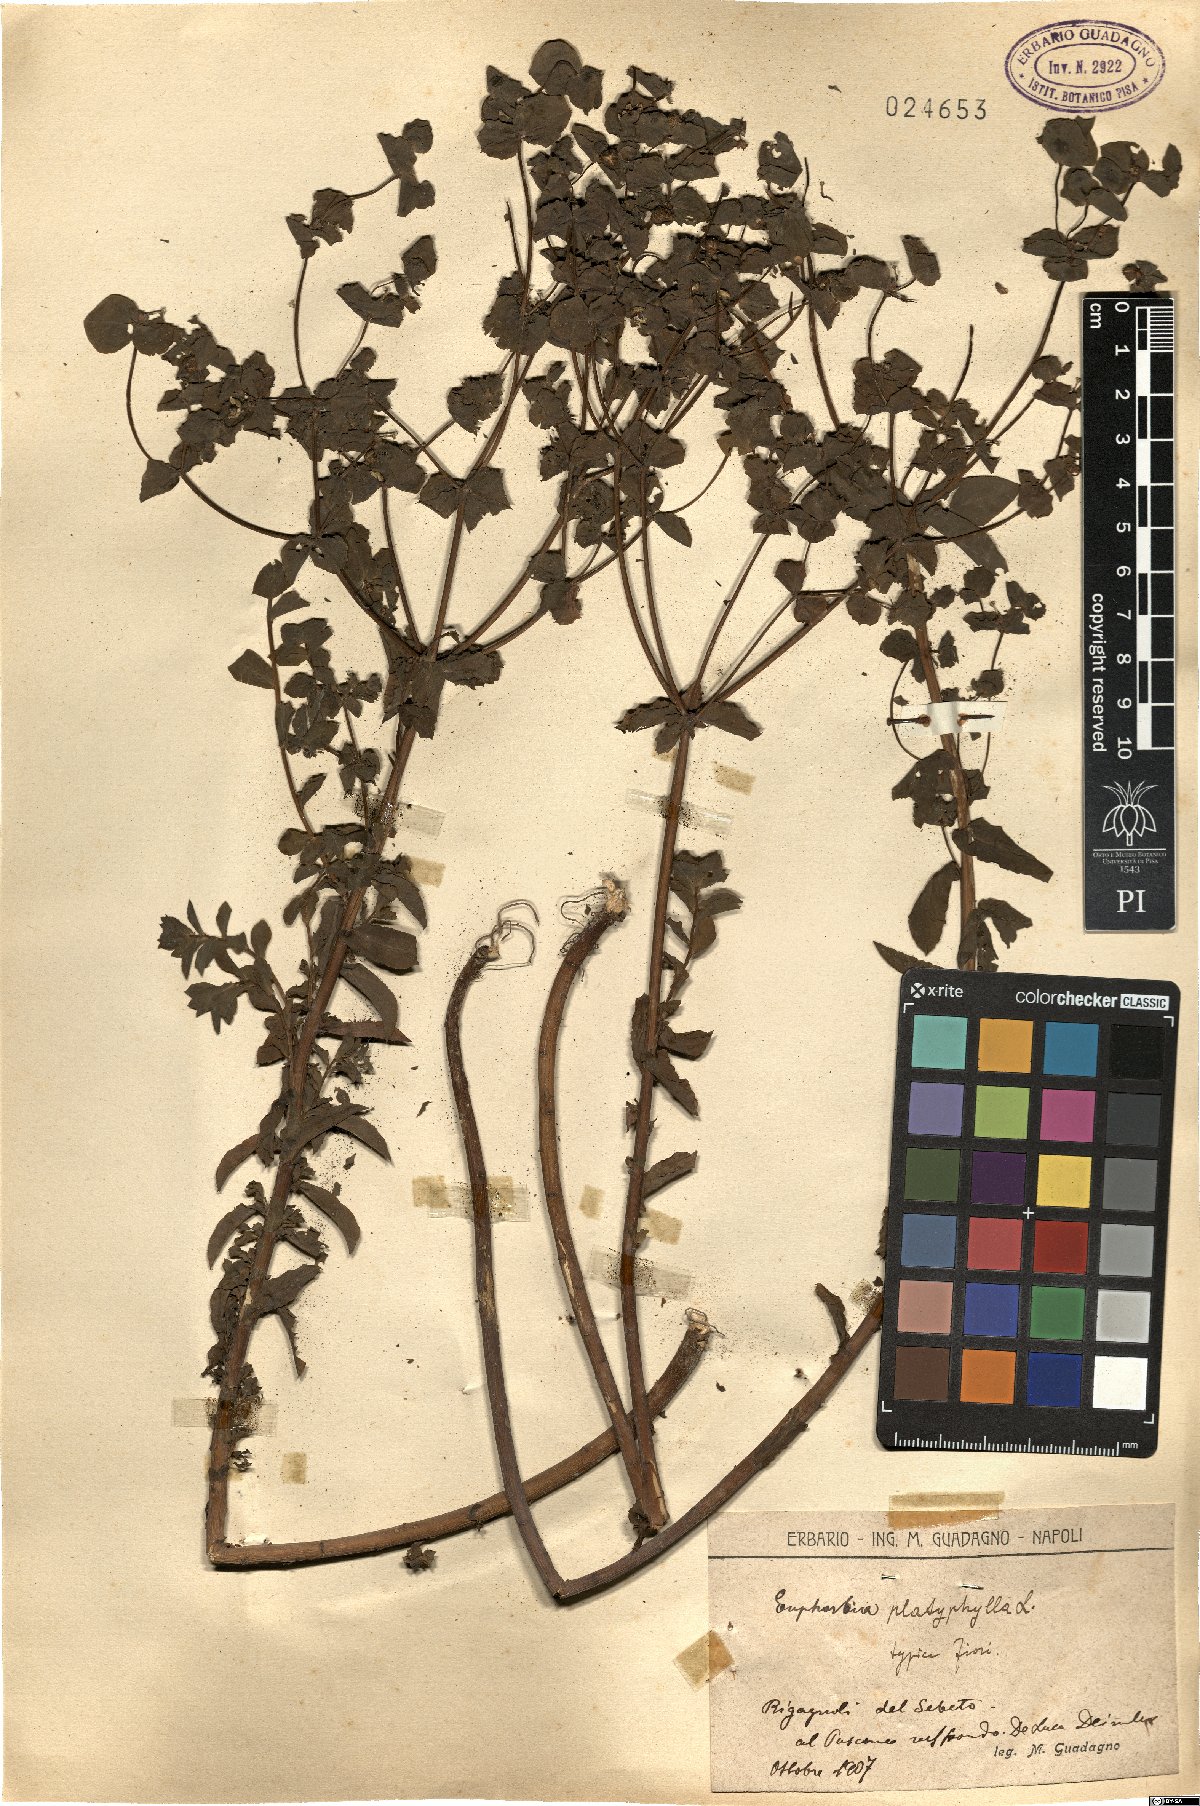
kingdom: Plantae
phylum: Tracheophyta
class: Magnoliopsida
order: Malpighiales
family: Euphorbiaceae
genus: Euphorbia
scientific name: Euphorbia platyphyllos
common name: Broad-leaved spurge
